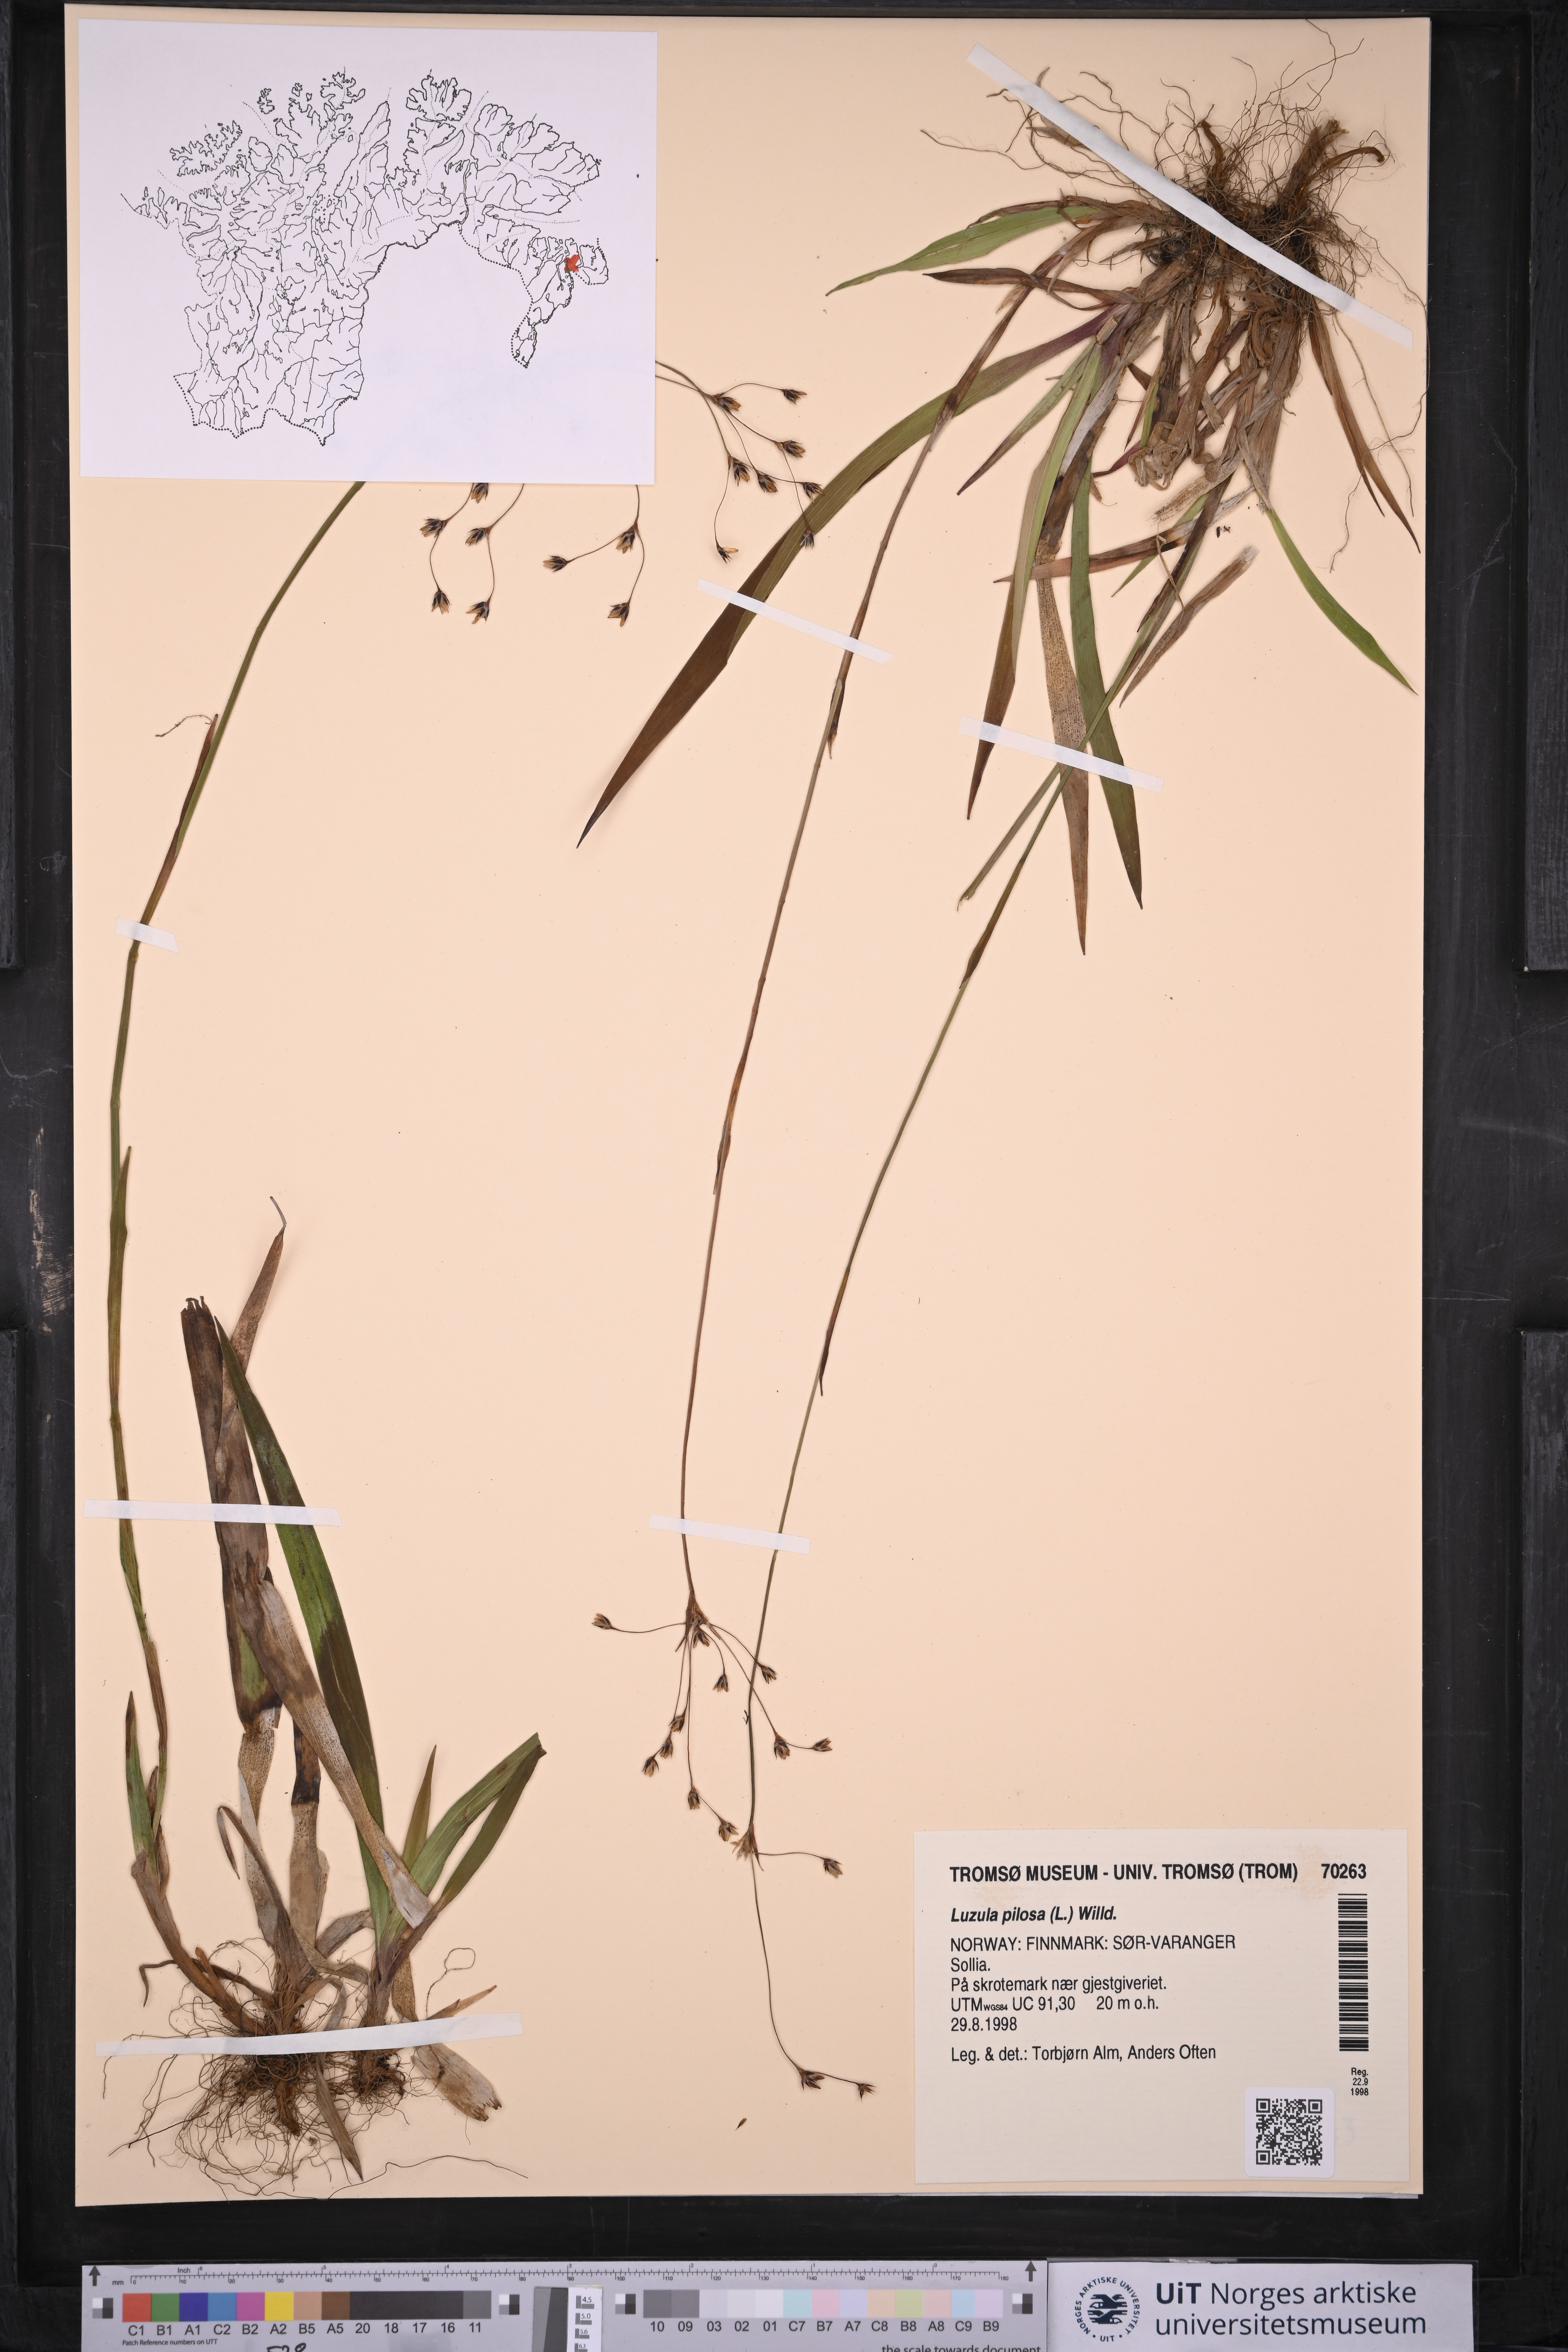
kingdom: Plantae
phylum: Tracheophyta
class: Liliopsida
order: Poales
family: Juncaceae
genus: Luzula
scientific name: Luzula pilosa
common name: Hairy wood-rush
